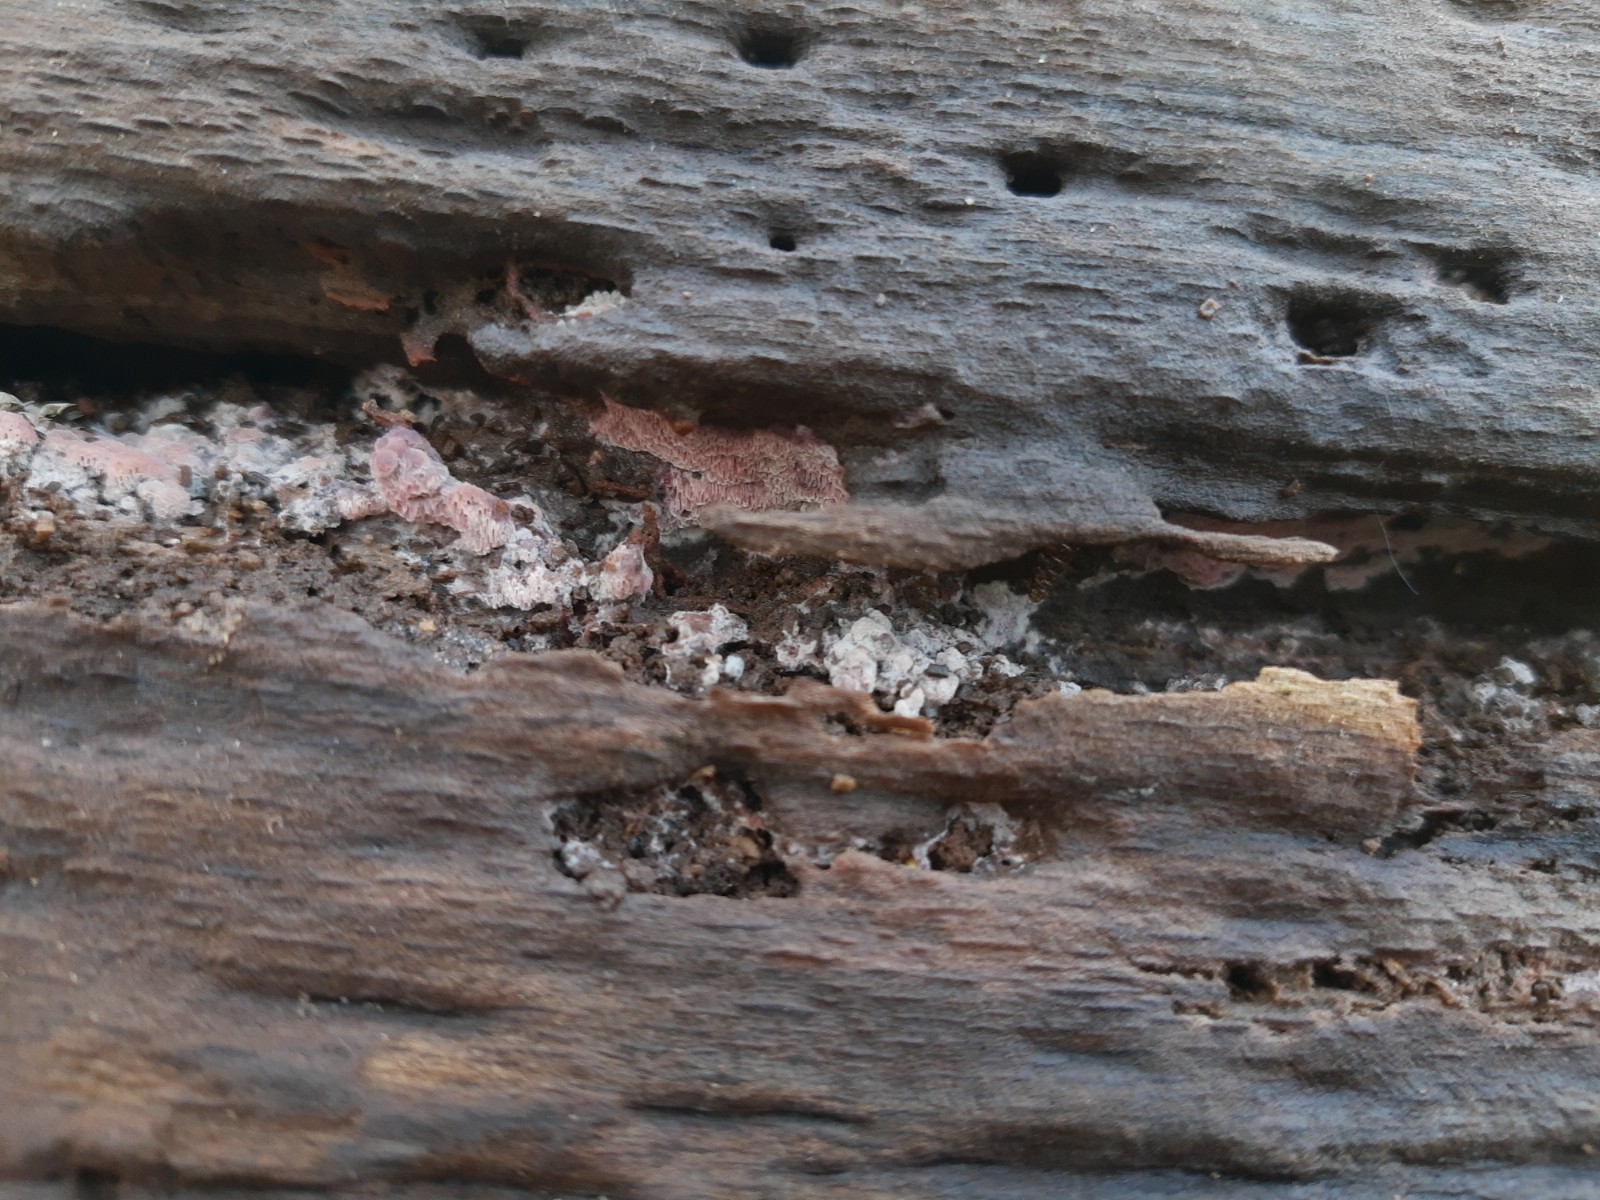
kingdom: Fungi
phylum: Basidiomycota
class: Agaricomycetes
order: Polyporales
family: Irpicaceae
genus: Ceriporia
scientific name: Ceriporia
